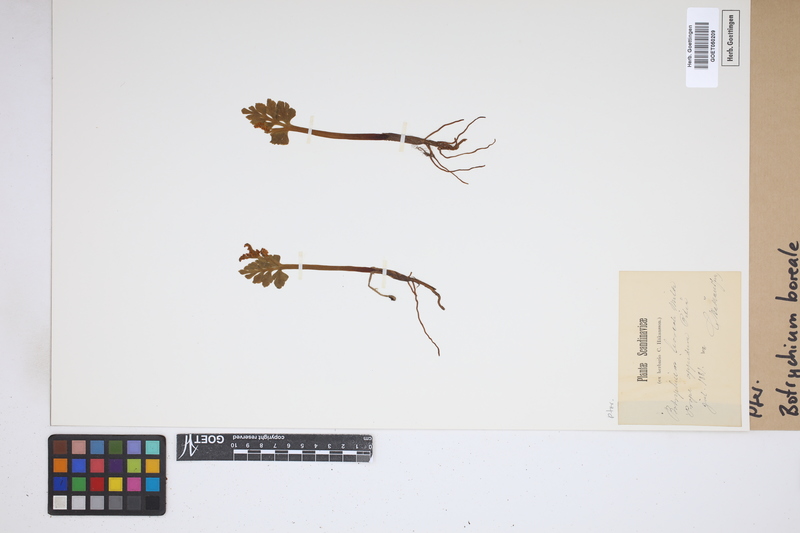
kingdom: Plantae
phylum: Tracheophyta
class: Polypodiopsida
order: Ophioglossales
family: Ophioglossaceae
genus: Botrychium
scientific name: Botrychium boreale
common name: Boreal moonwort
